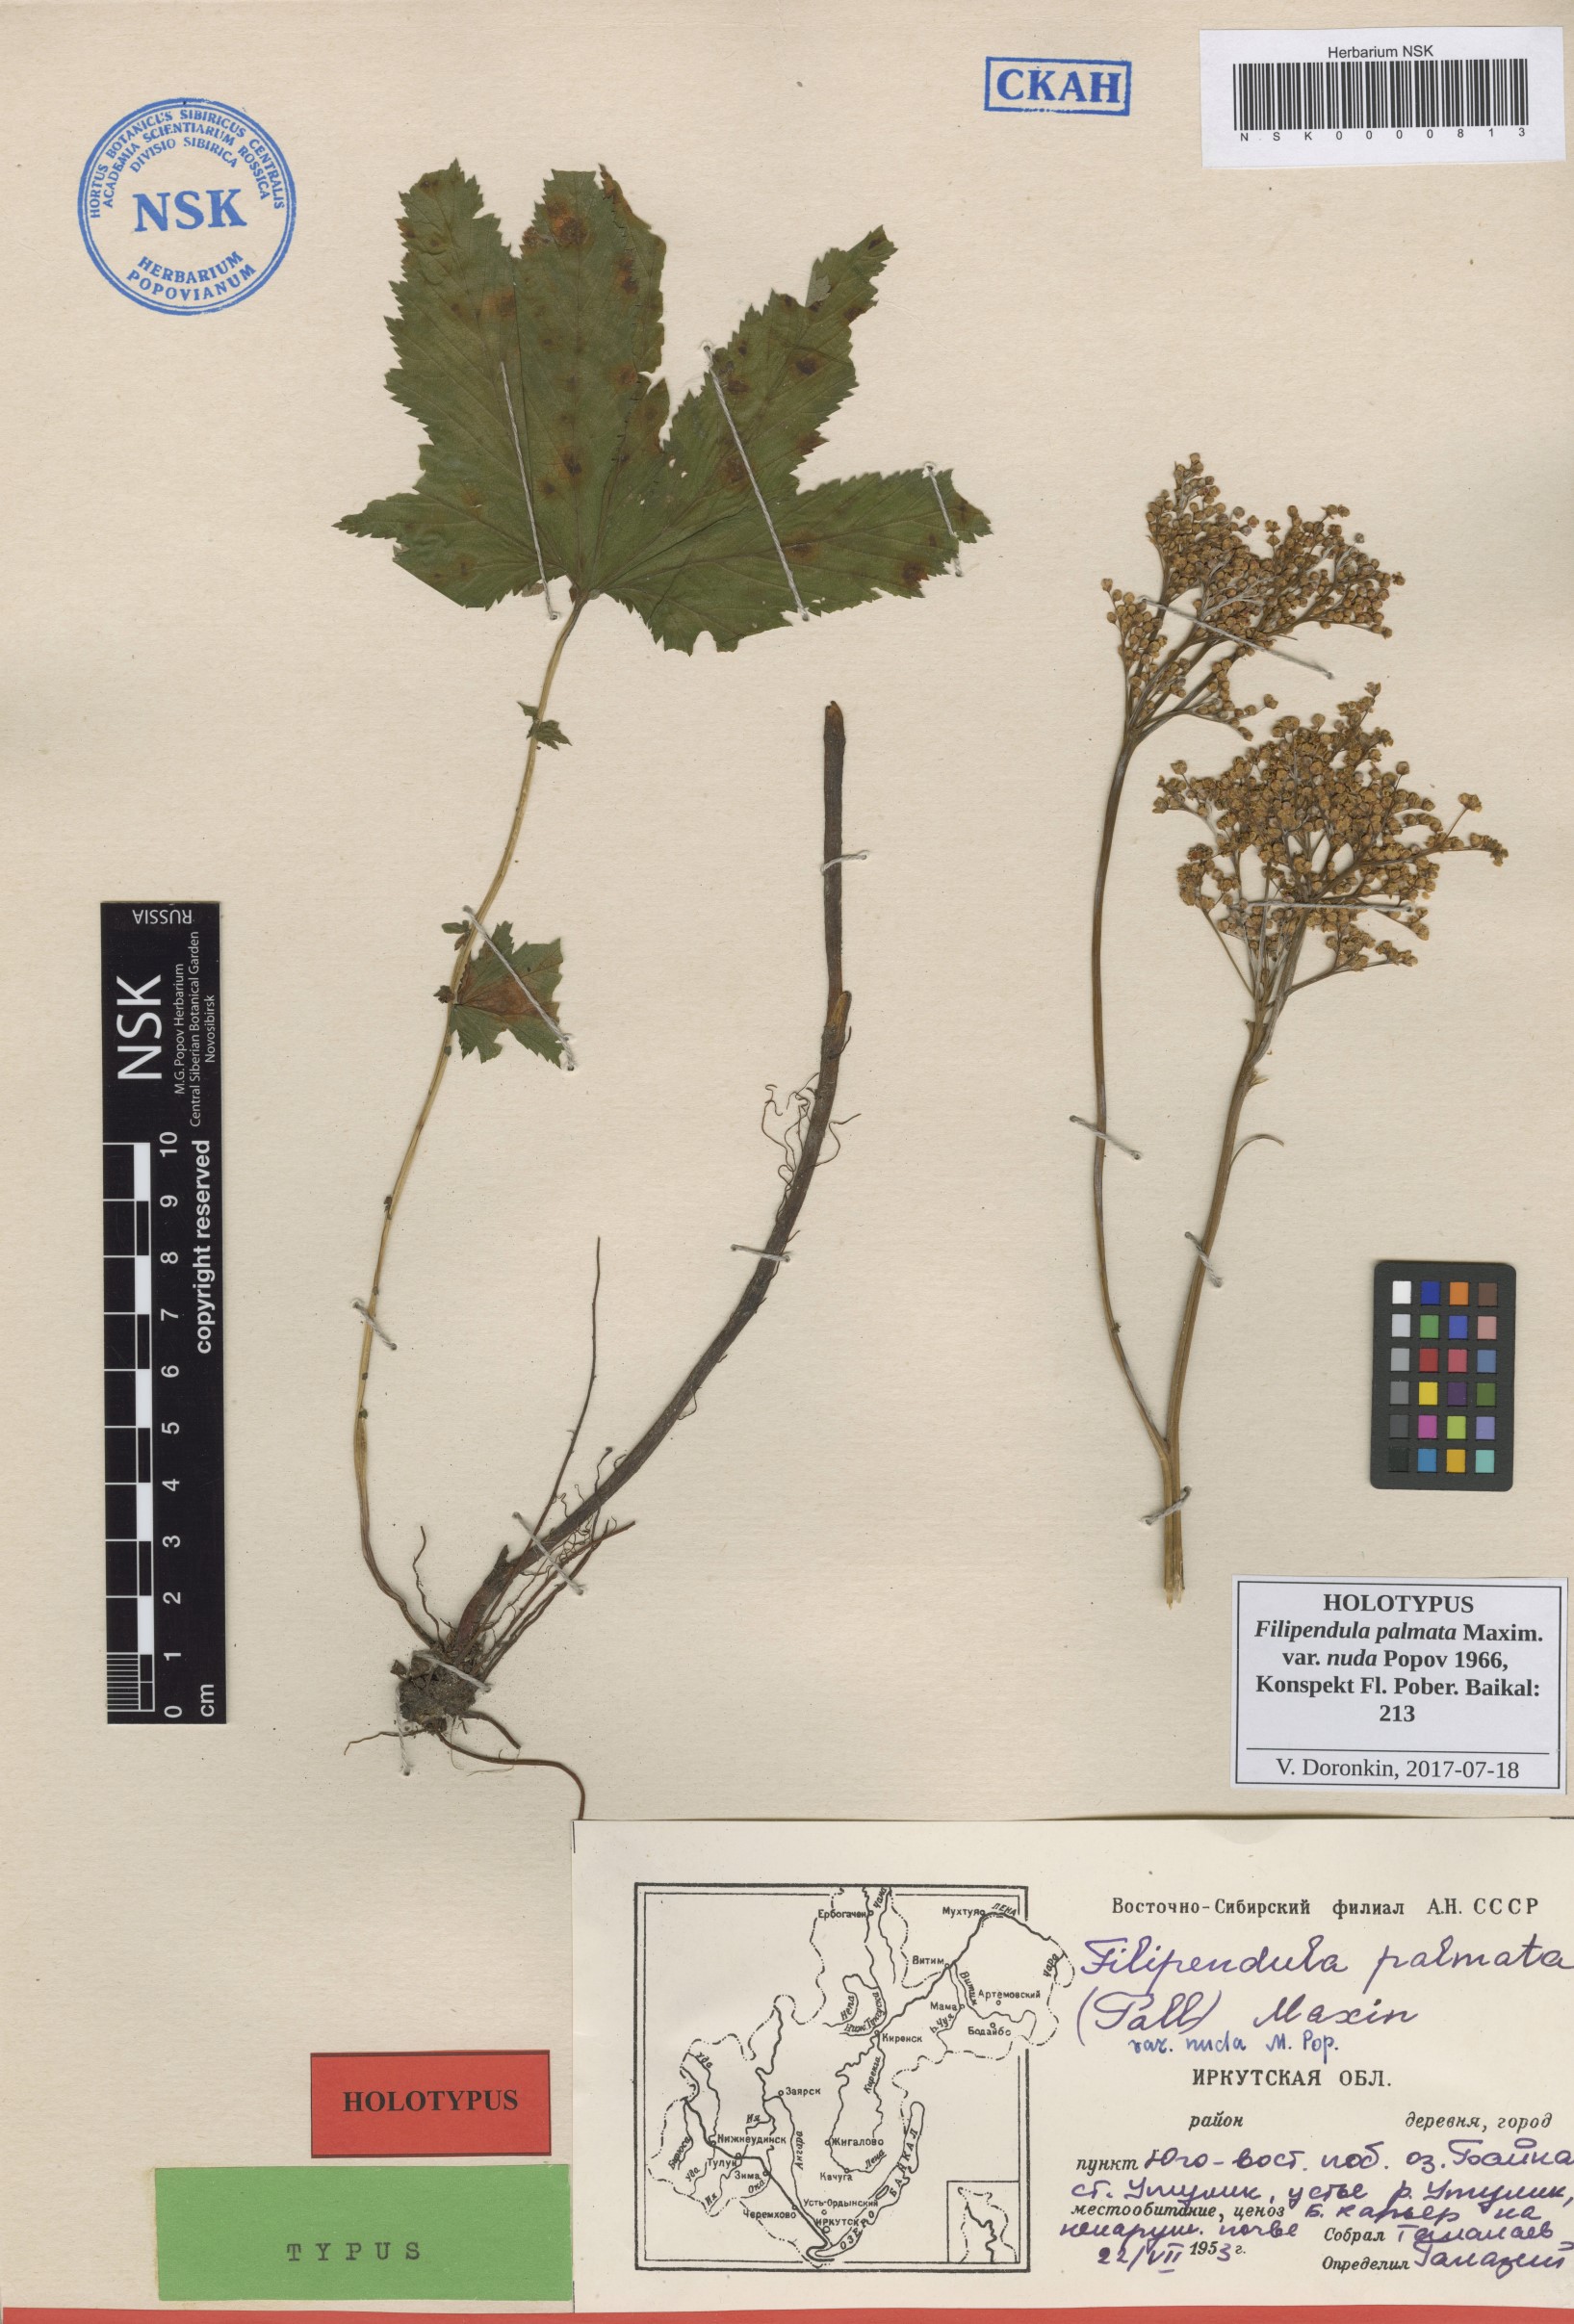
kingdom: Plantae
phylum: Tracheophyta
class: Magnoliopsida
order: Rosales
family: Rosaceae
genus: Filipendula
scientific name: Filipendula digitata
